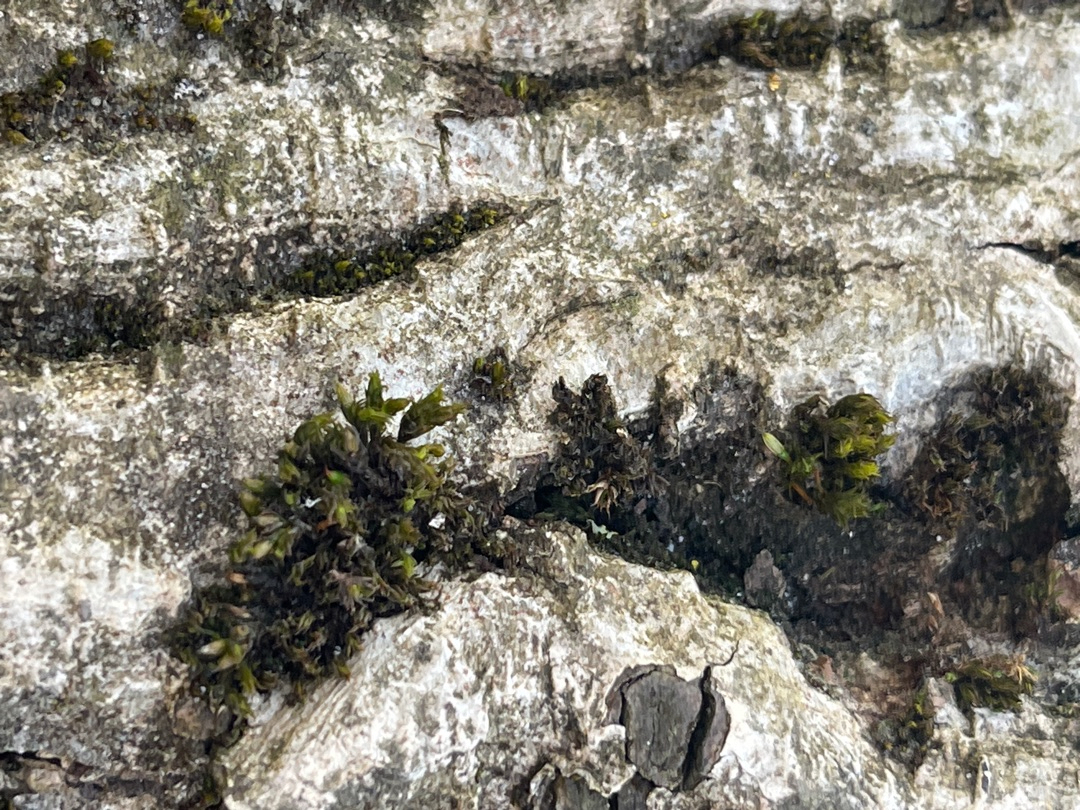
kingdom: Plantae
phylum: Bryophyta
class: Bryopsida
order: Orthotrichales
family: Orthotrichaceae
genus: Lewinskya
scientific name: Lewinskya affinis
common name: Almindelig furehætte
